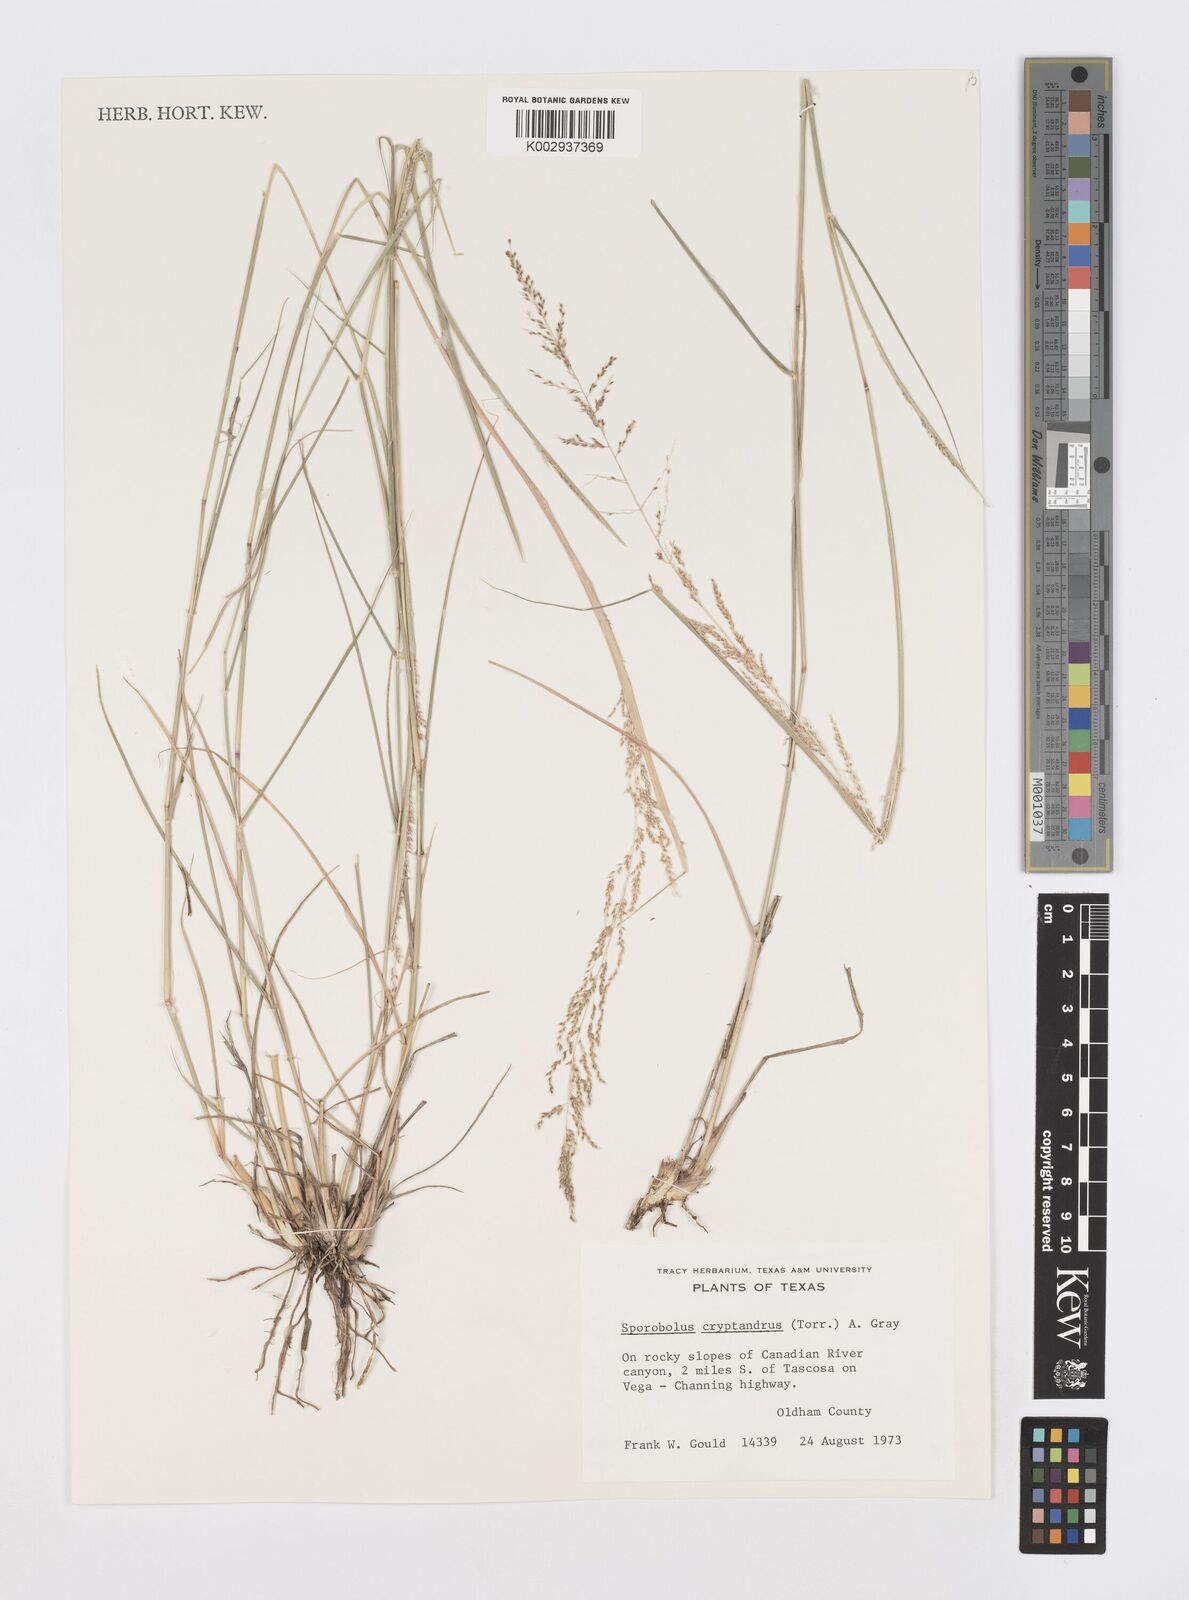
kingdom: Plantae
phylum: Tracheophyta
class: Liliopsida
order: Poales
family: Poaceae
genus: Sporobolus
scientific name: Sporobolus cryptandrus
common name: Sand dropseed
